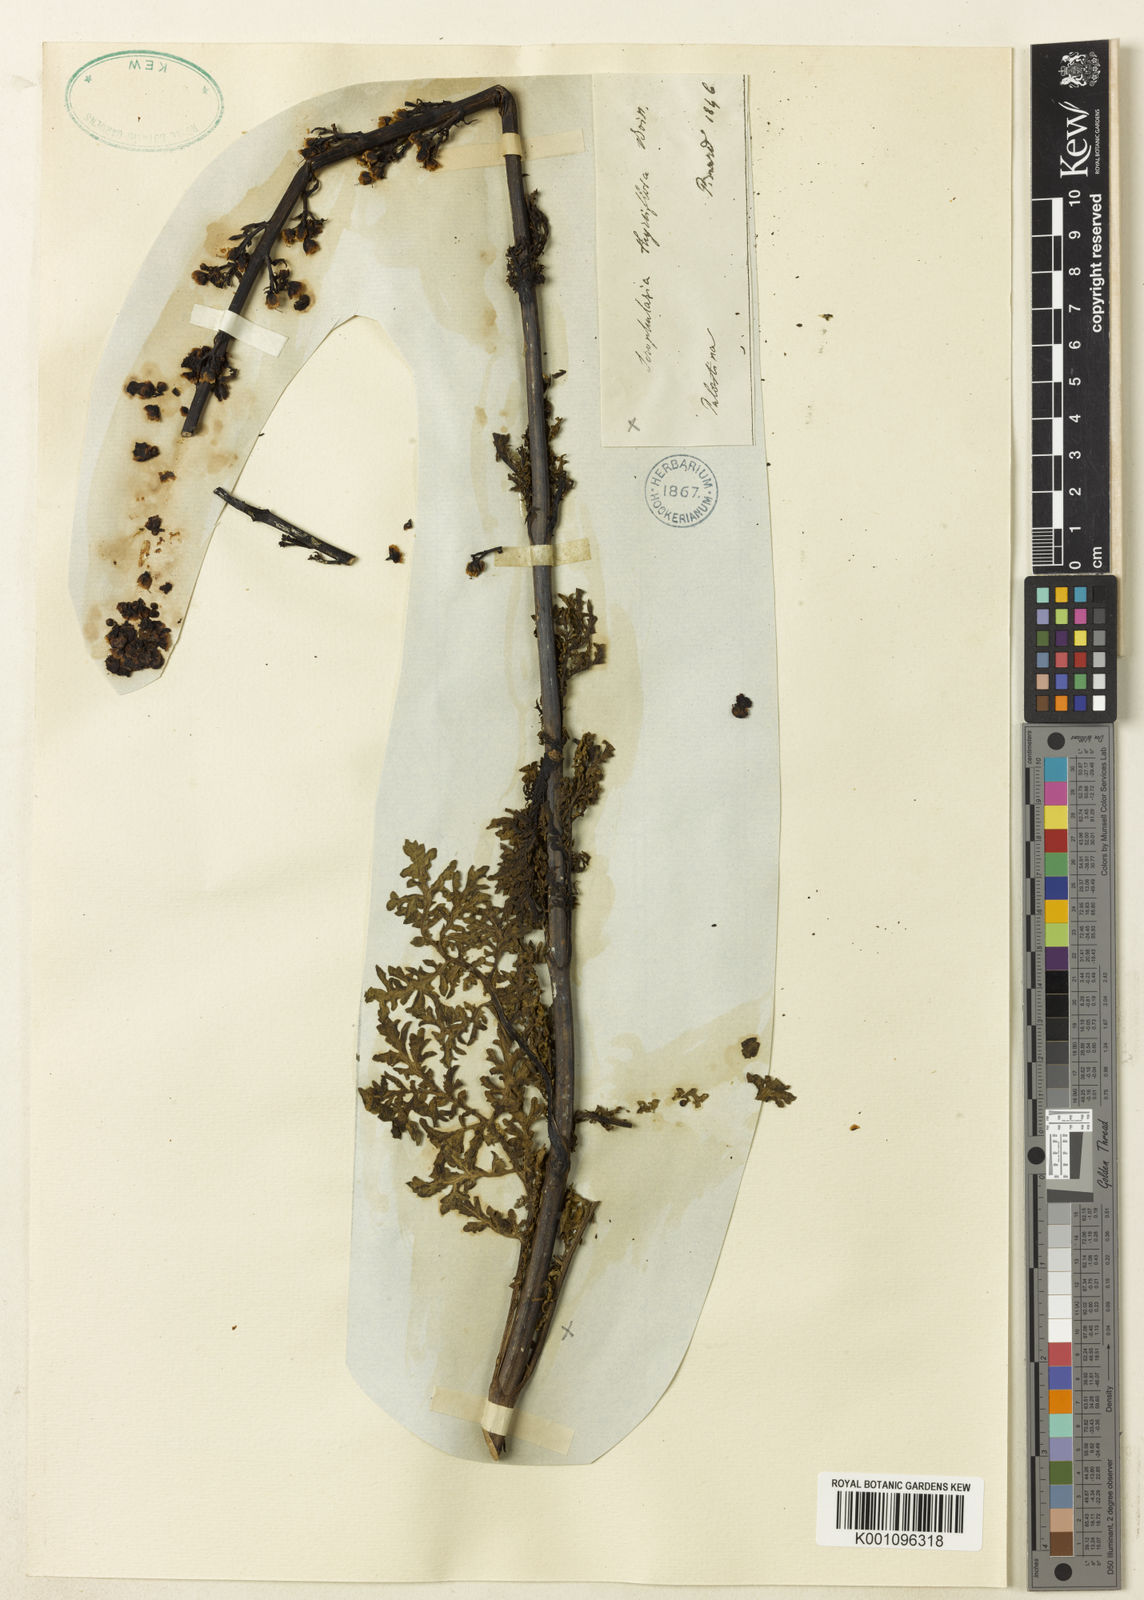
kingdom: Plantae
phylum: Tracheophyta
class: Magnoliopsida
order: Lamiales
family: Scrophulariaceae
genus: Scrophularia
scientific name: Scrophularia
